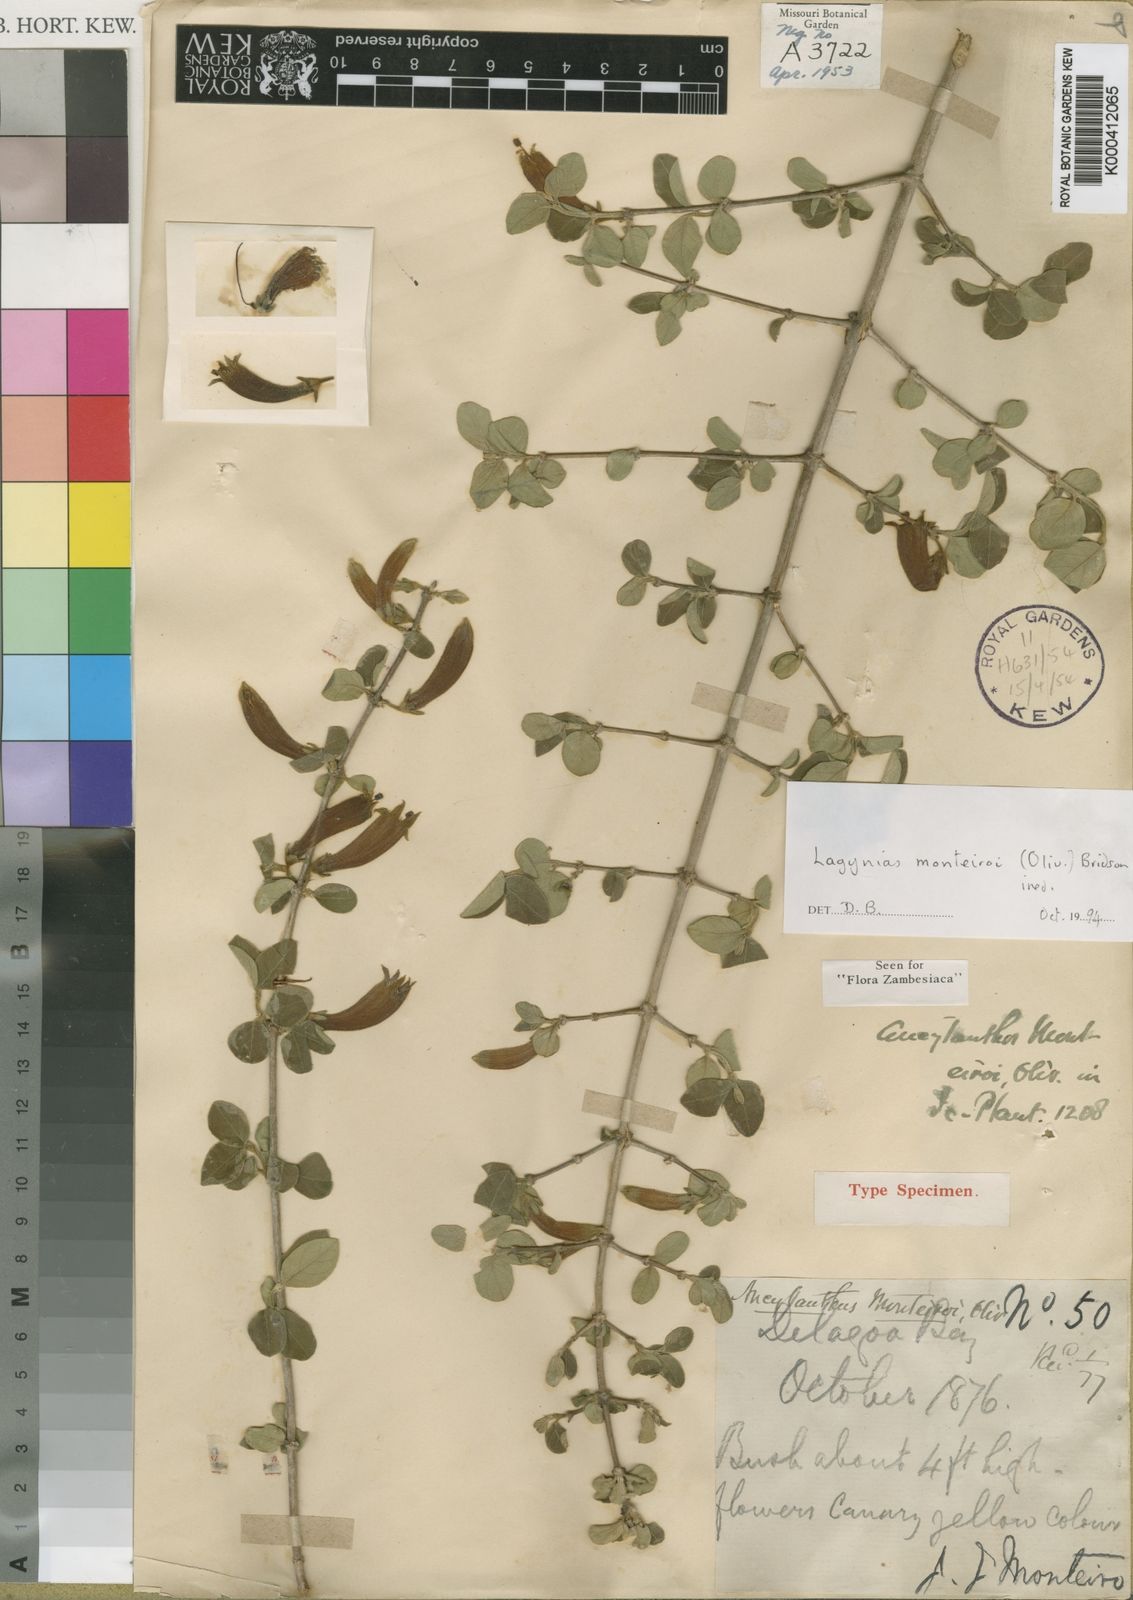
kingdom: Plantae
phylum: Tracheophyta
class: Magnoliopsida
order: Gentianales
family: Rubiaceae
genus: Vangueria
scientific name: Vangueria monteiroi
